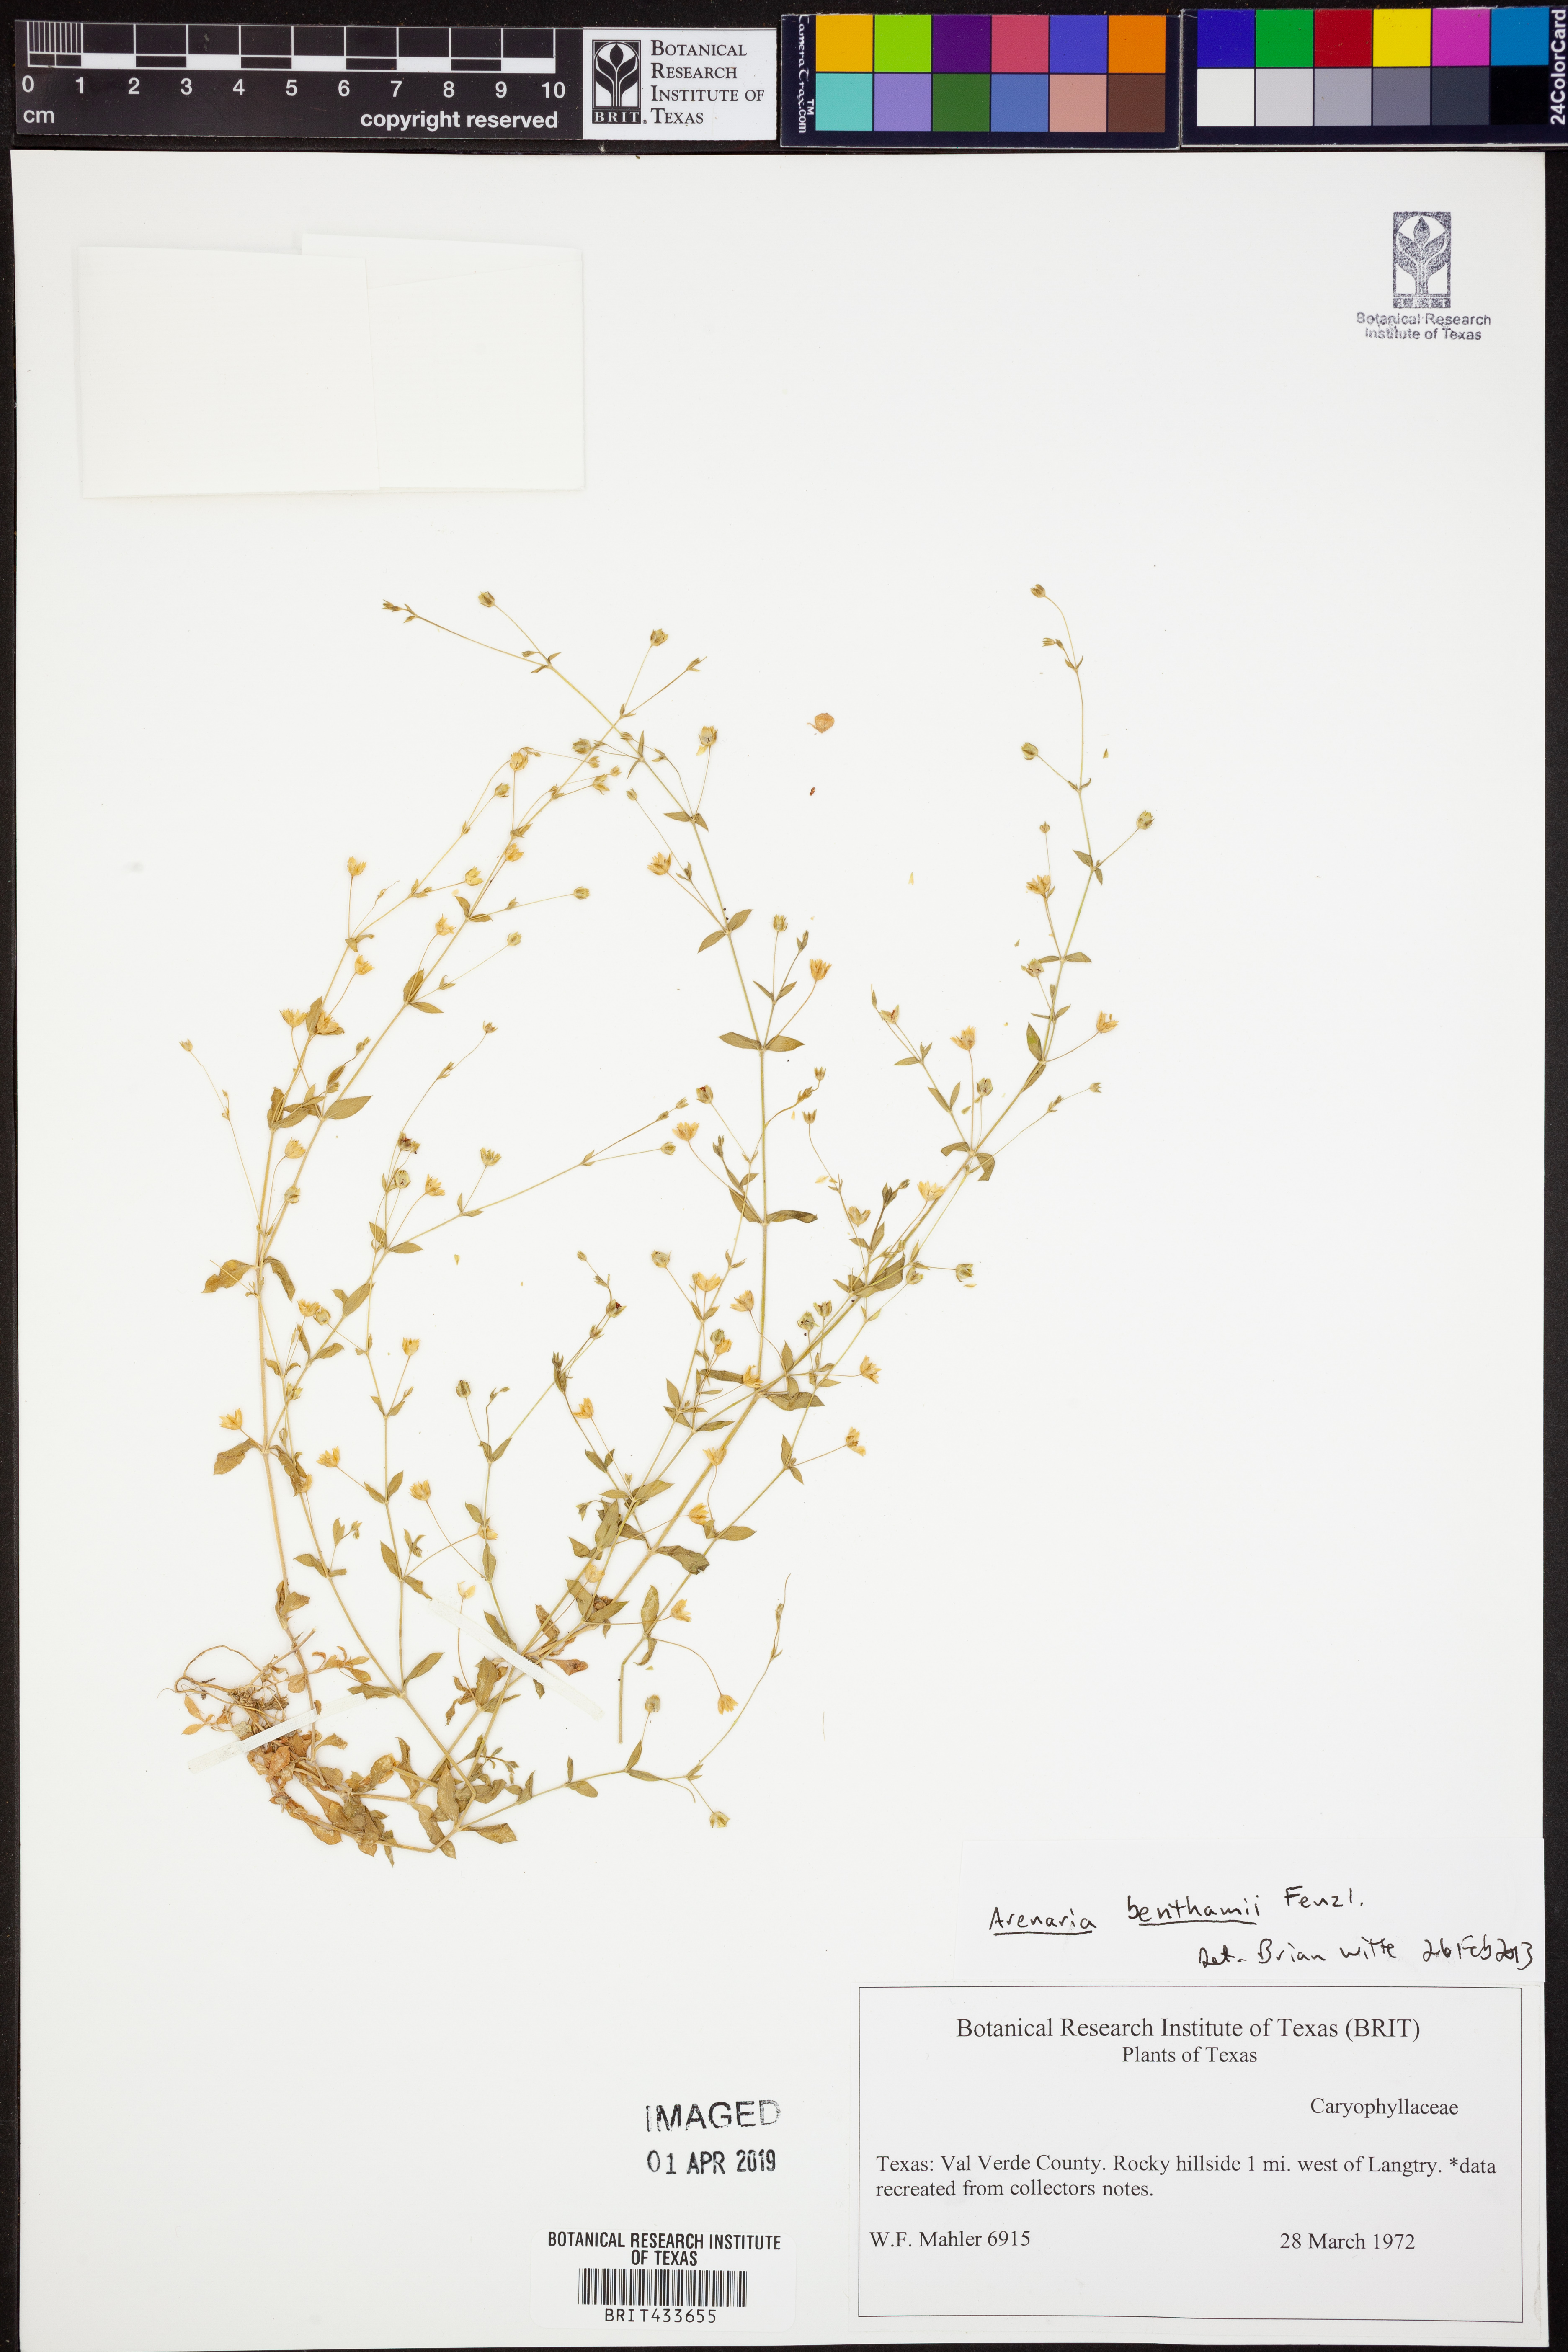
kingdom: Plantae
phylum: Tracheophyta
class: Magnoliopsida
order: Caryophyllales
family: Caryophyllaceae
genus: Arenaria
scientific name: Arenaria benthamii
